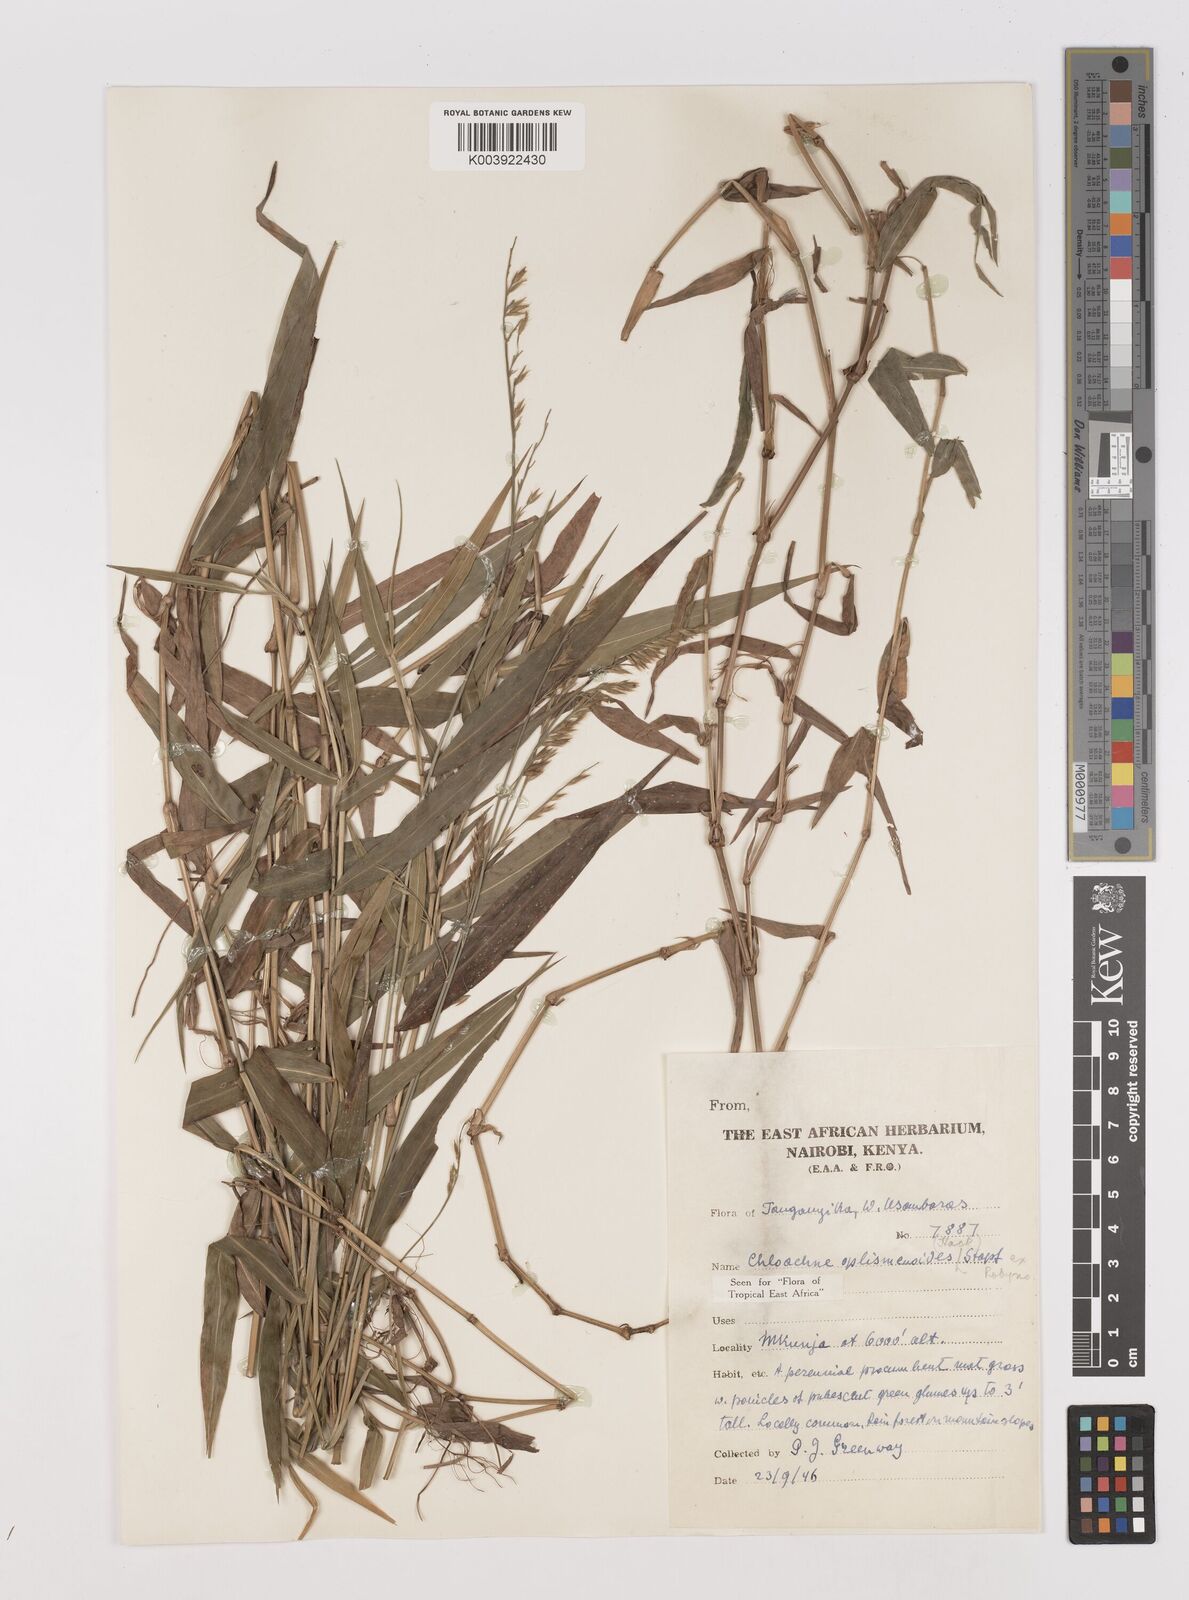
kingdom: Plantae
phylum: Tracheophyta
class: Liliopsida
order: Poales
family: Poaceae
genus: Poecilostachys
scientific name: Poecilostachys oplismenoides
